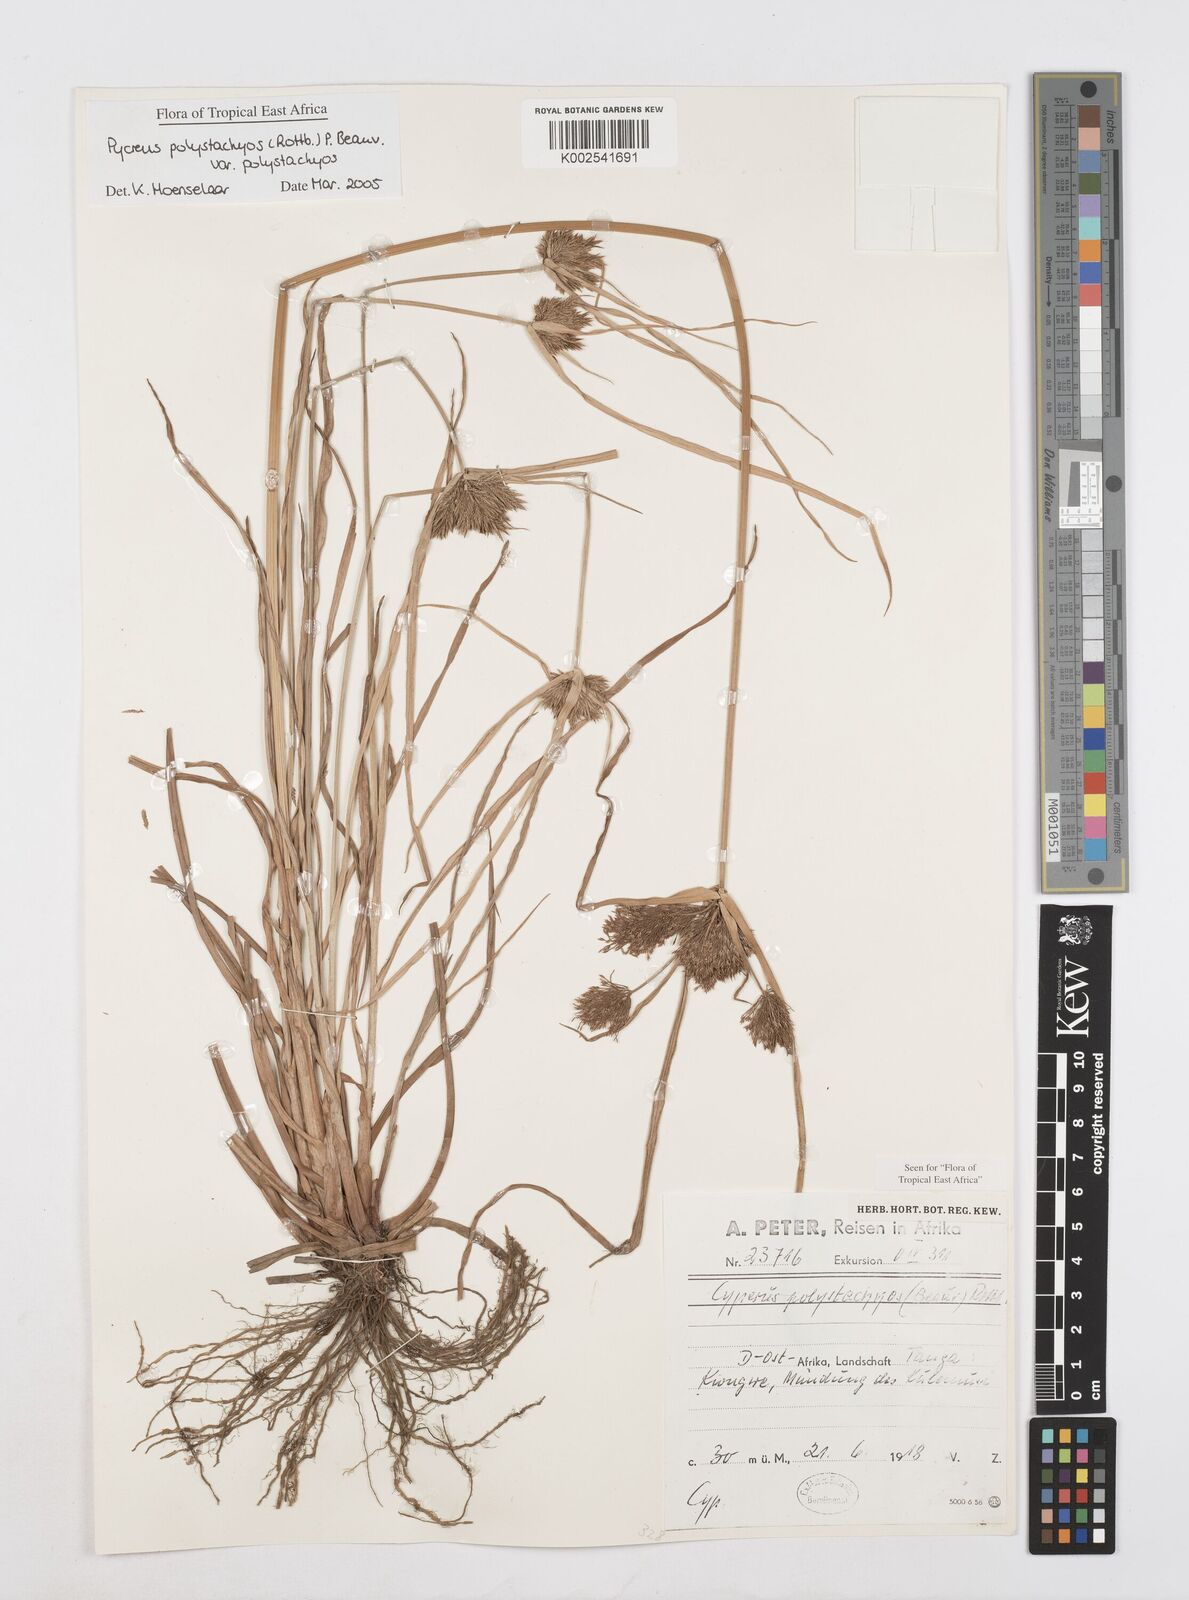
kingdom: Plantae
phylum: Tracheophyta
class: Liliopsida
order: Poales
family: Cyperaceae
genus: Cyperus
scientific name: Cyperus polystachyos
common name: Bunchy flat sedge
